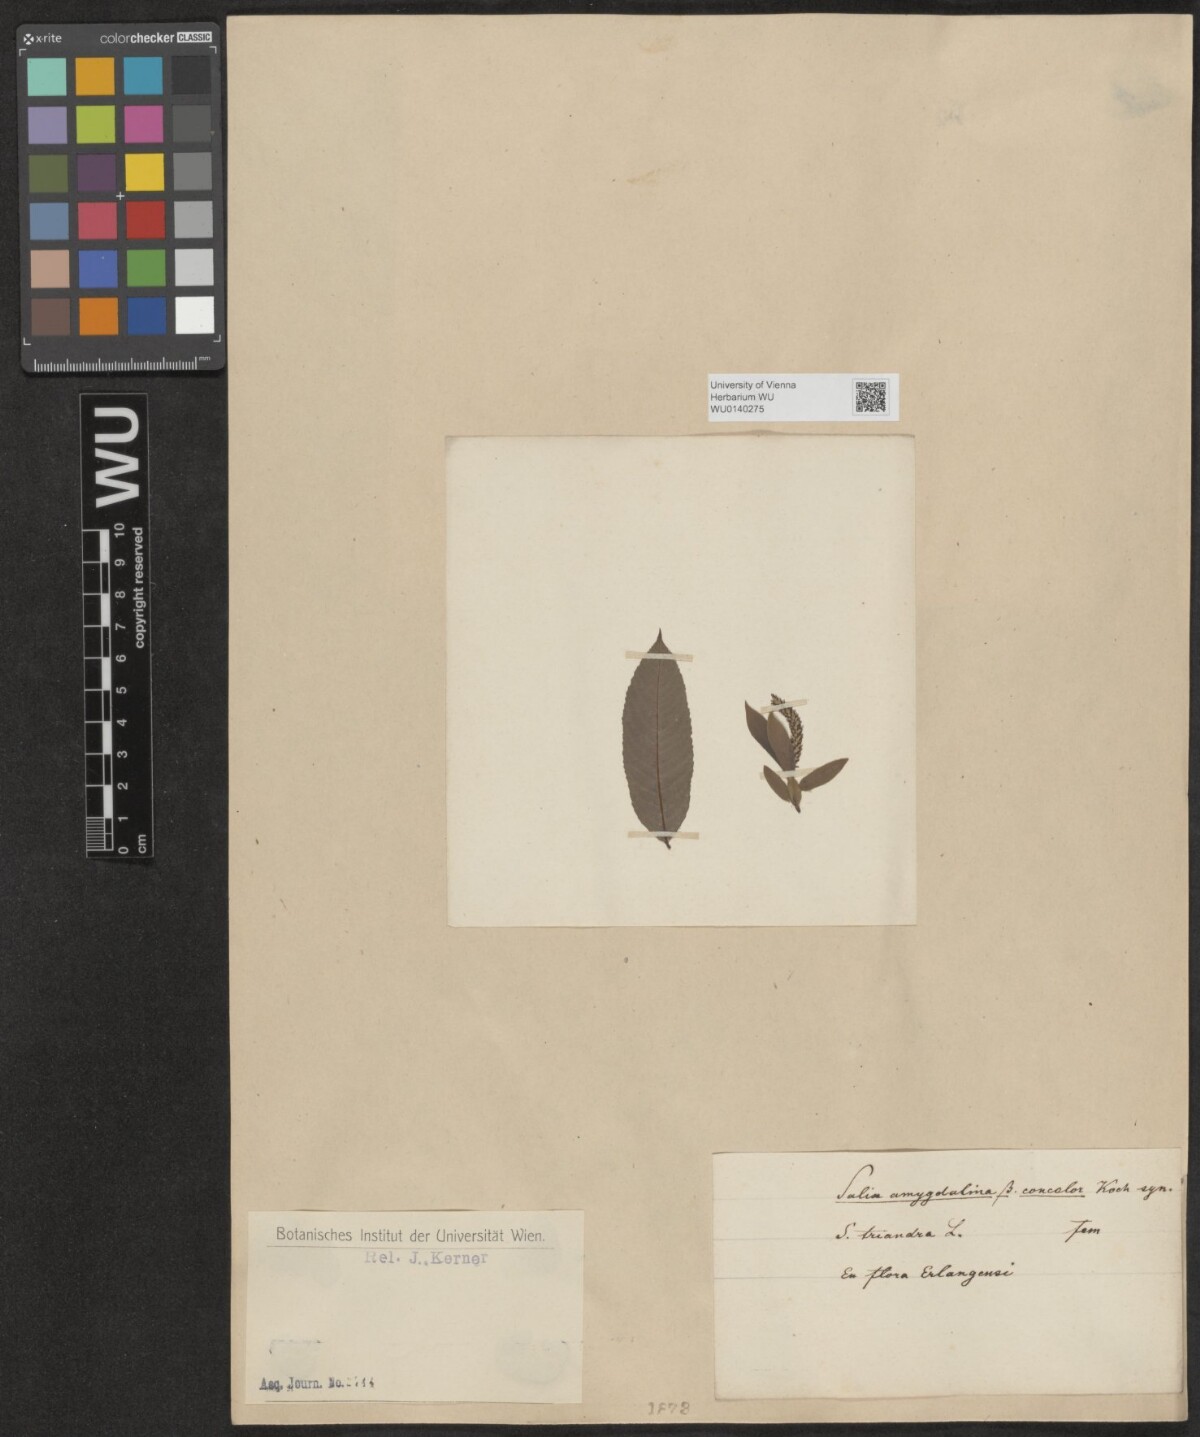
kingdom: Plantae
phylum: Tracheophyta
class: Magnoliopsida
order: Malpighiales
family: Salicaceae
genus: Salix
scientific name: Salix triandra
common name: Almond willow
